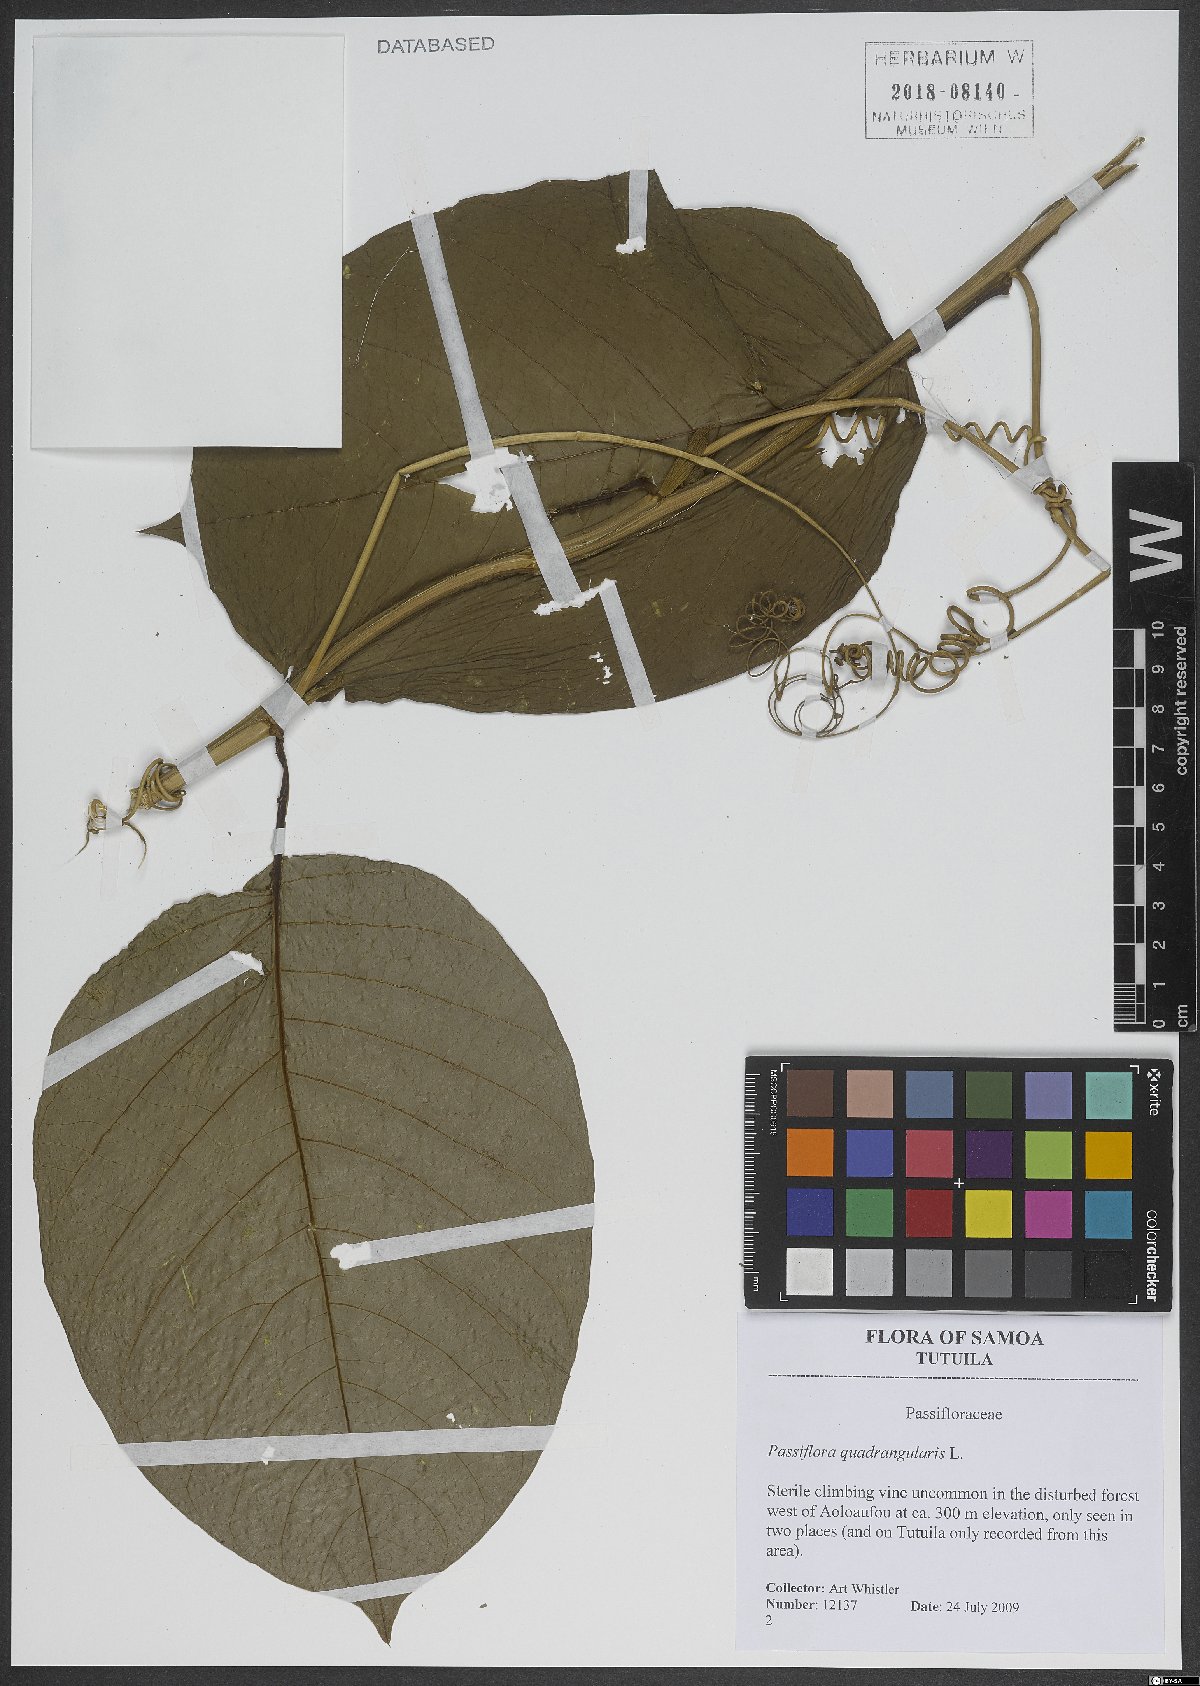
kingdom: Plantae
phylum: Tracheophyta
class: Magnoliopsida
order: Malpighiales
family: Passifloraceae
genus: Passiflora
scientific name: Passiflora quadrangularis
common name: Giant granadilla
